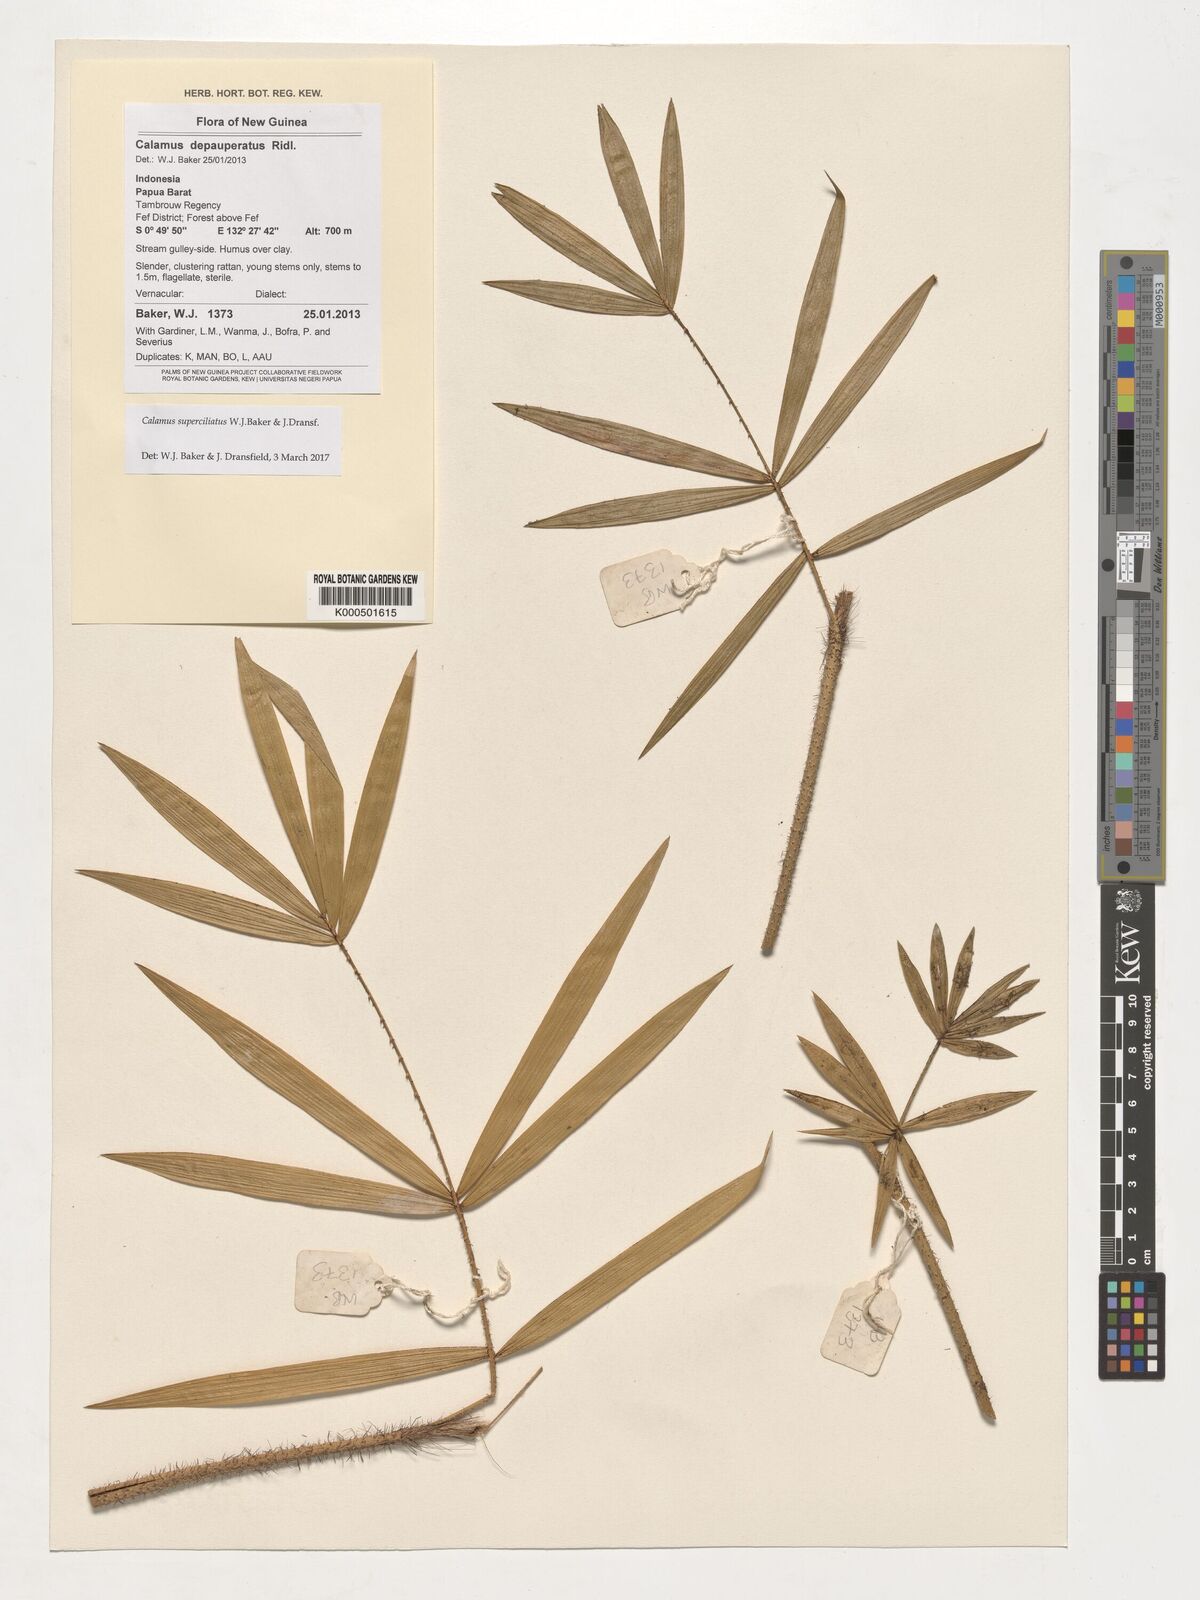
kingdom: Plantae
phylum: Tracheophyta
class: Liliopsida
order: Arecales
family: Arecaceae
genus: Calamus
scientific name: Calamus superciliatus
